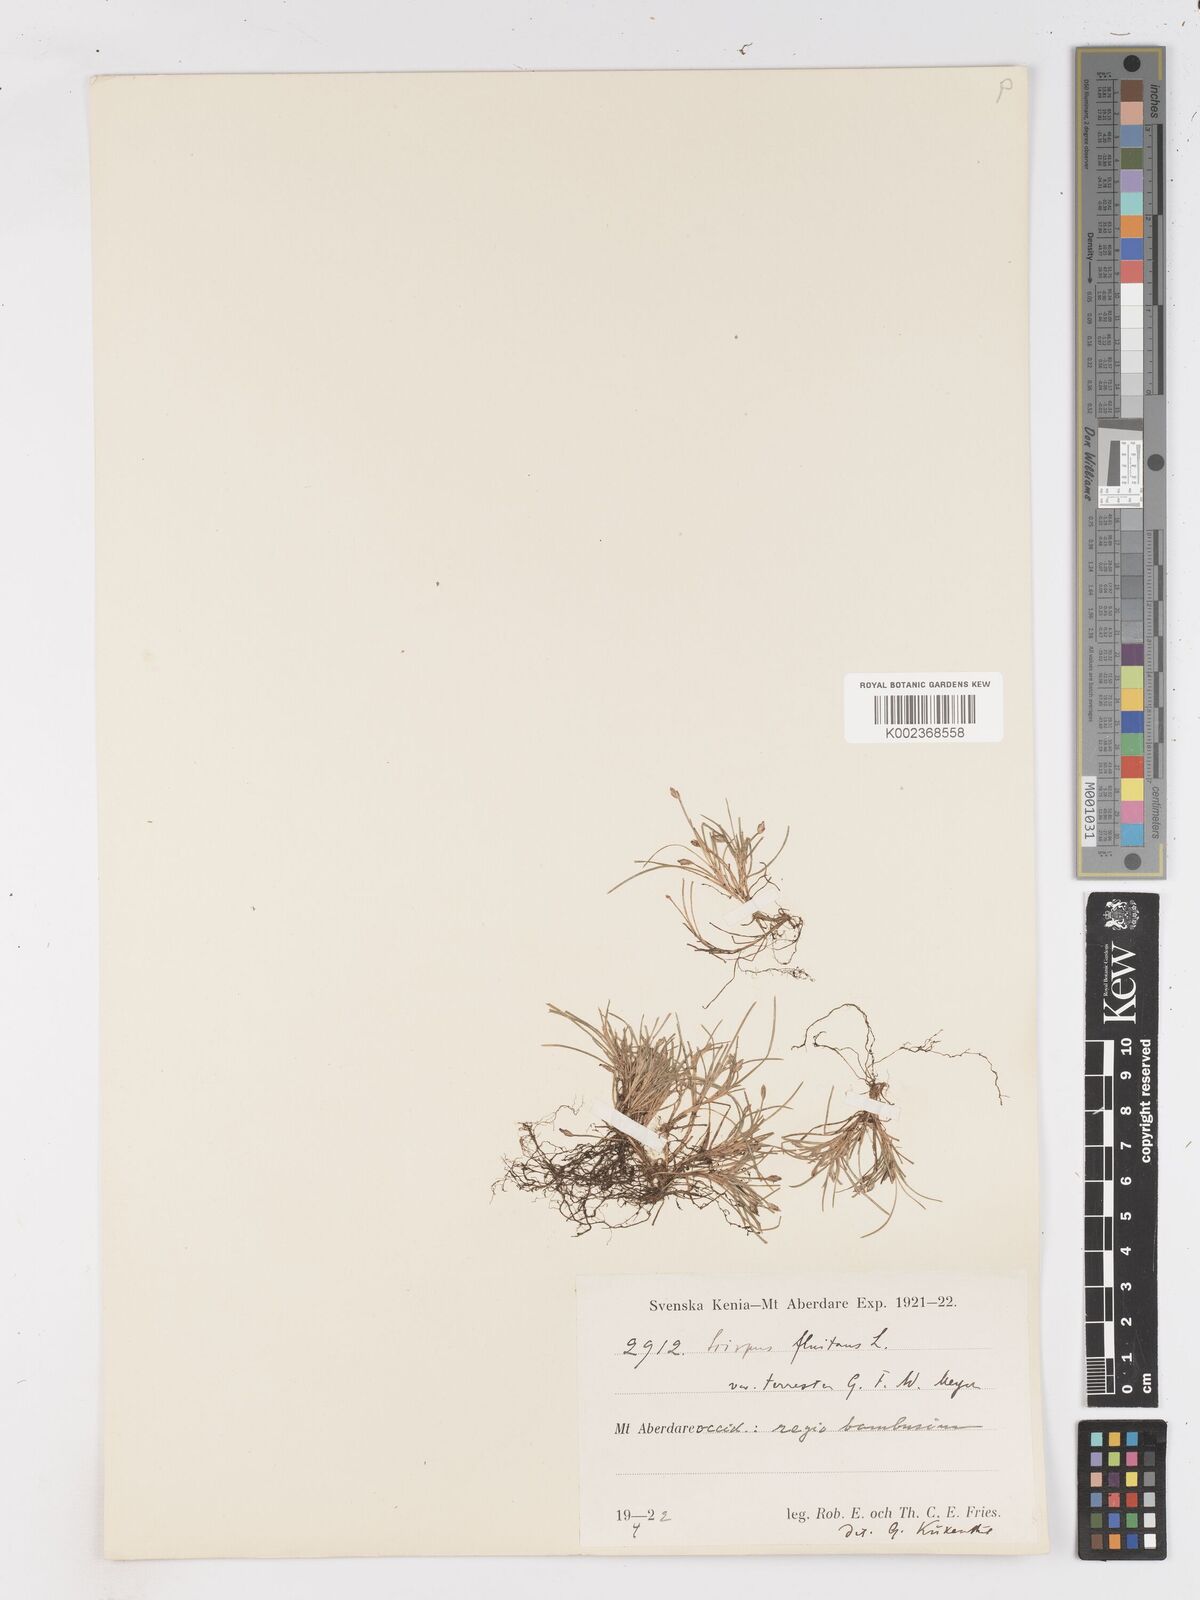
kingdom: Plantae
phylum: Tracheophyta
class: Liliopsida
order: Poales
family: Cyperaceae
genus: Isolepis
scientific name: Isolepis fluitans
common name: Floating club-rush
